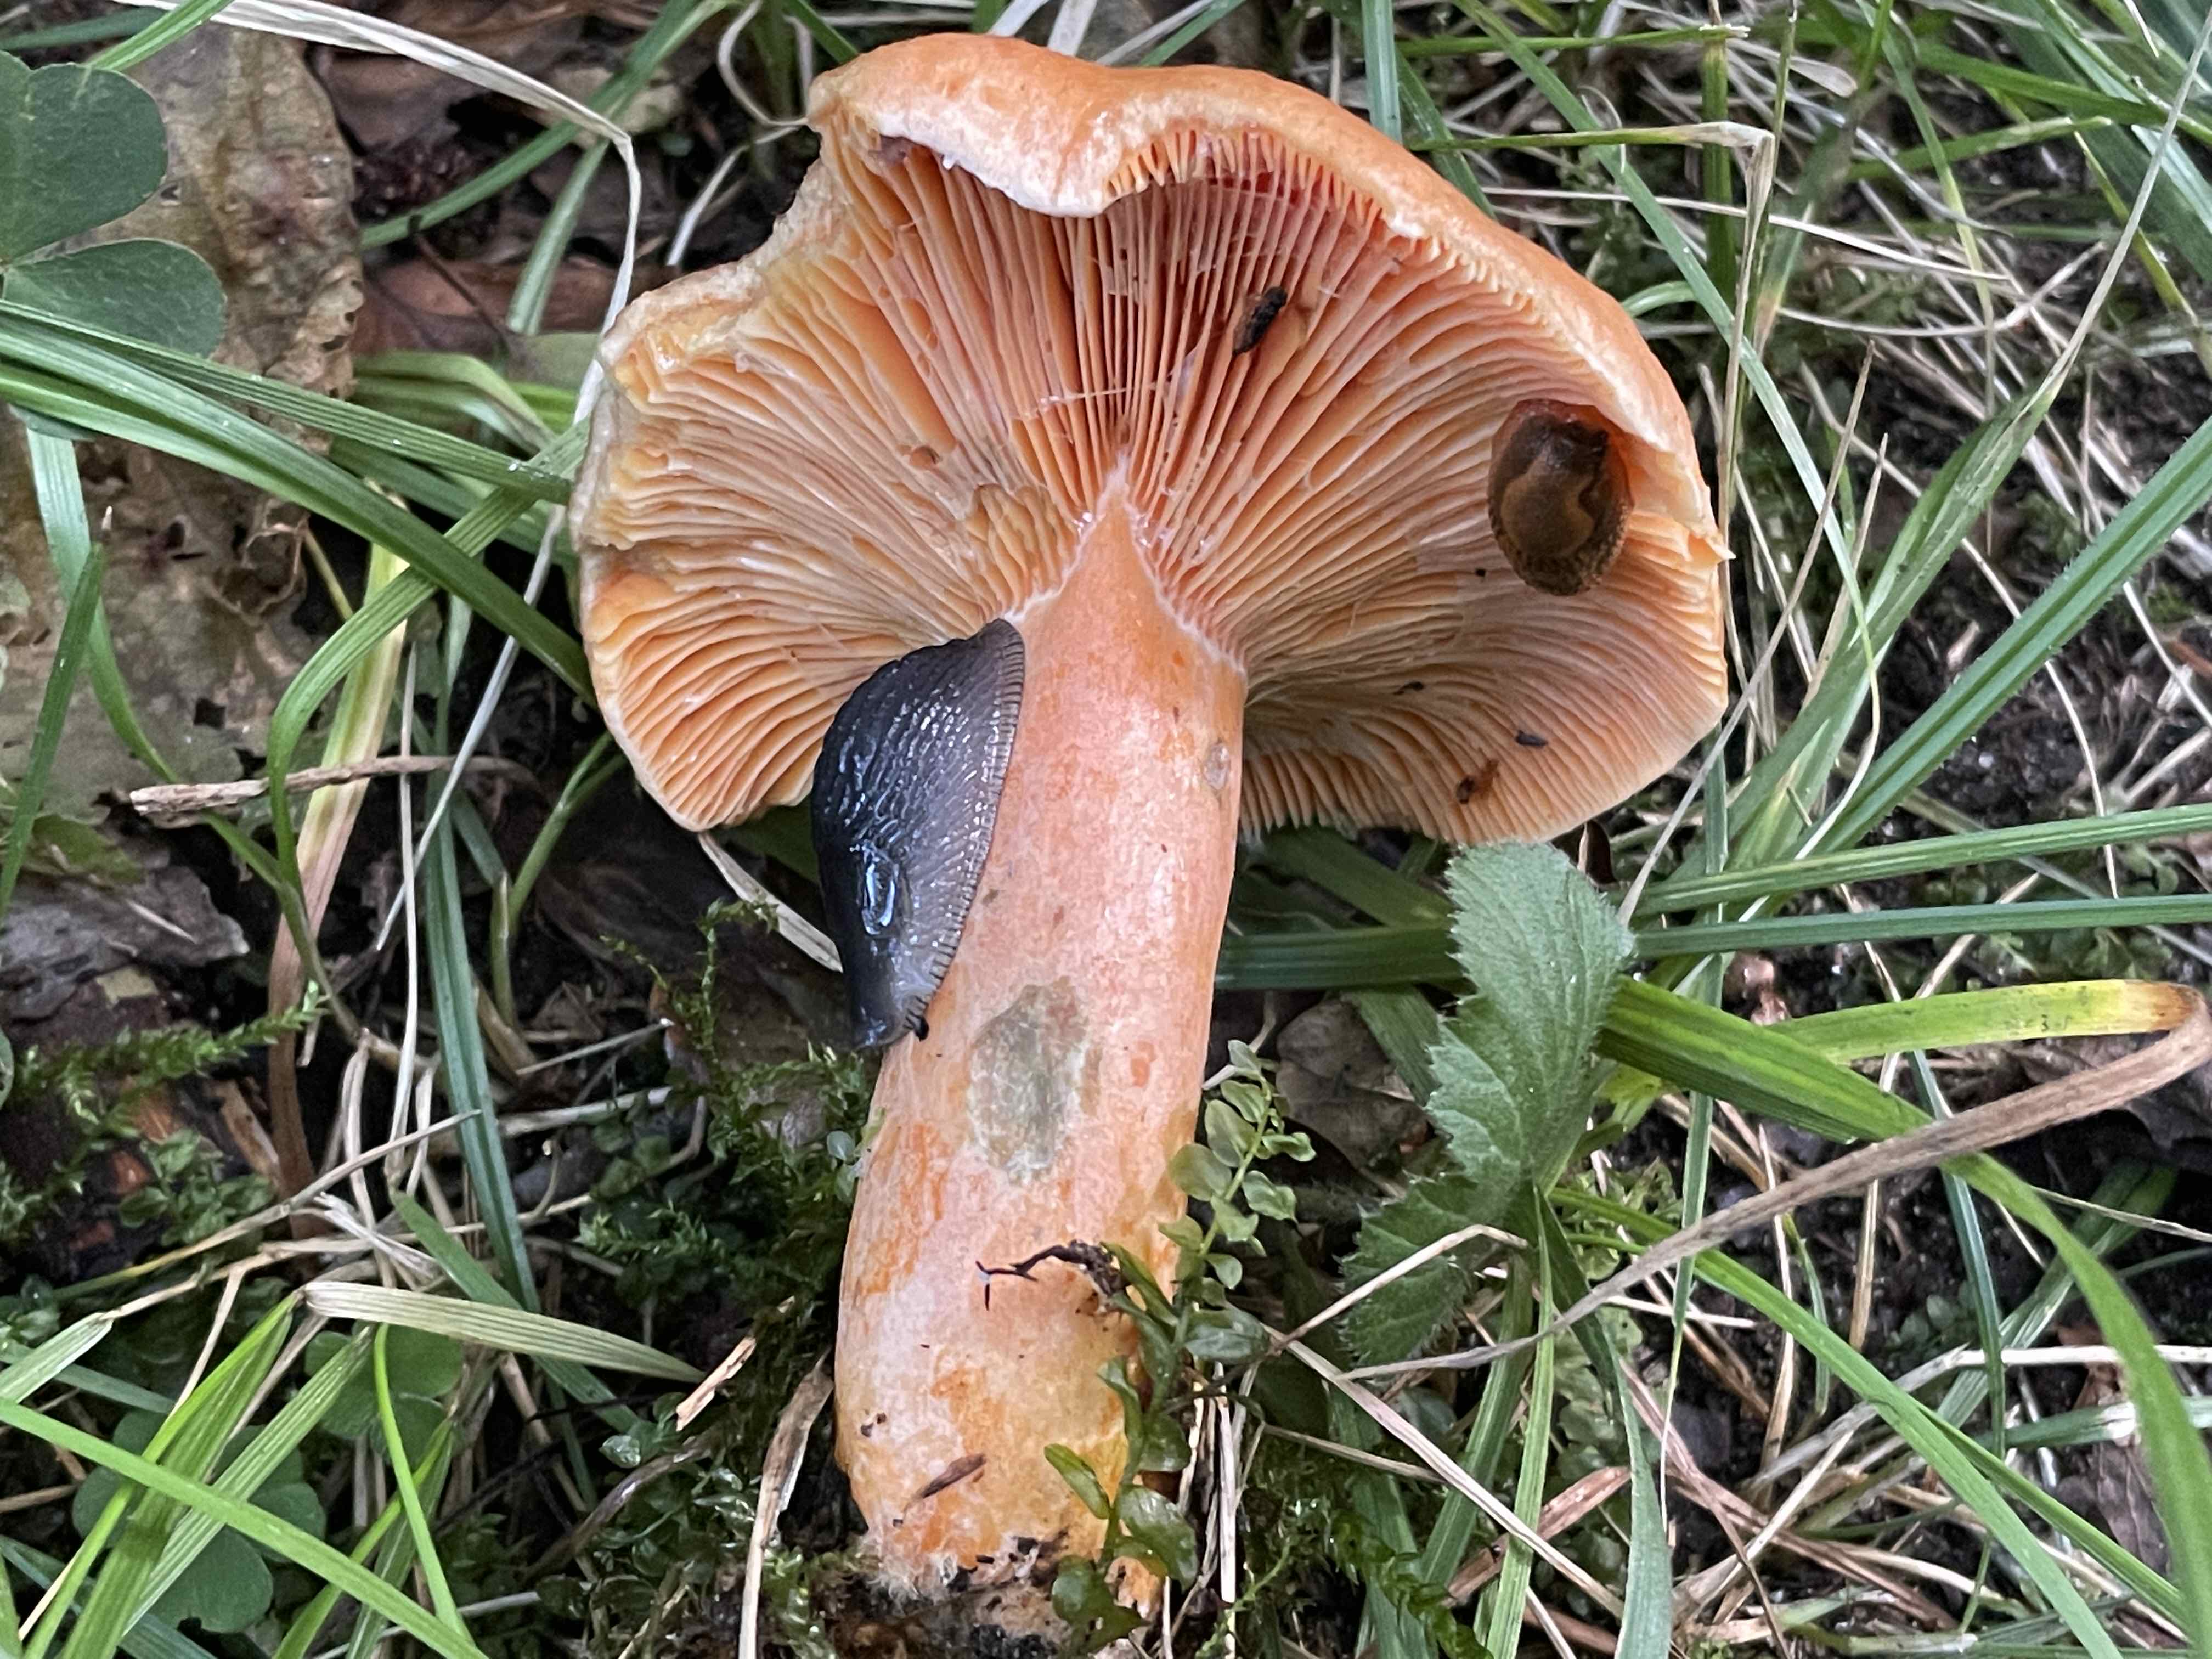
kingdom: Fungi
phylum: Basidiomycota
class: Agaricomycetes
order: Russulales
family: Russulaceae
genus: Lactarius
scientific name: Lactarius deterrimus
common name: gran-mælkehat
